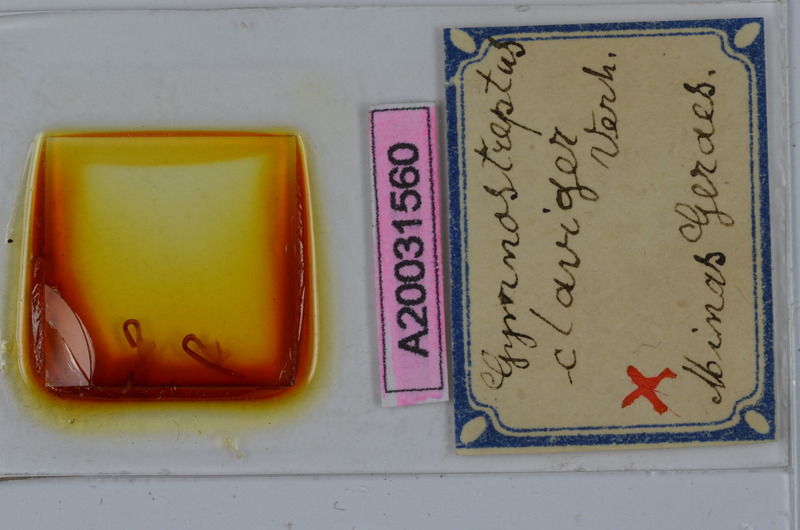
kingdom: Animalia
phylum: Arthropoda
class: Diplopoda
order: Spirostreptida
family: Spirostreptidae
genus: Gymnostreptus
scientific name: Gymnostreptus claviger
